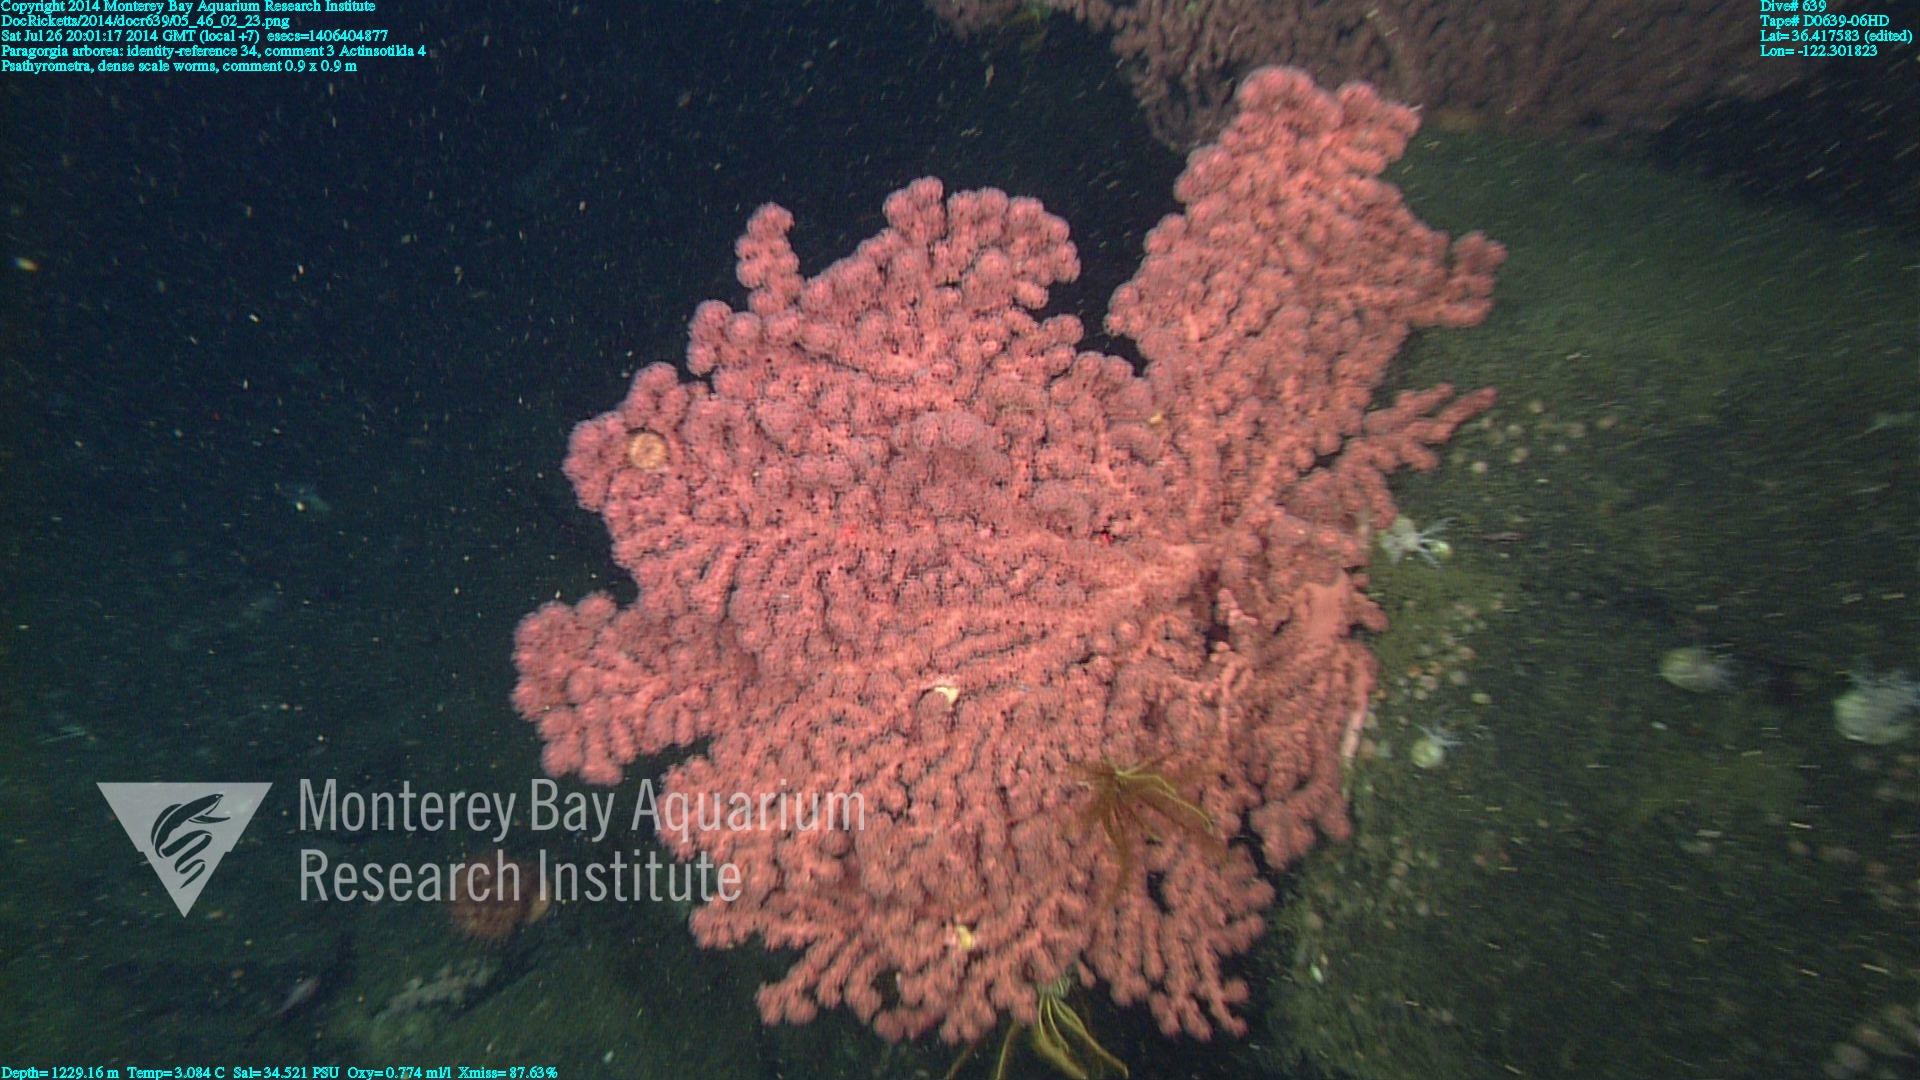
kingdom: Animalia
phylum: Cnidaria
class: Anthozoa
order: Scleralcyonacea
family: Coralliidae
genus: Paragorgia
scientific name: Paragorgia arborea
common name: Bubble gum coral
